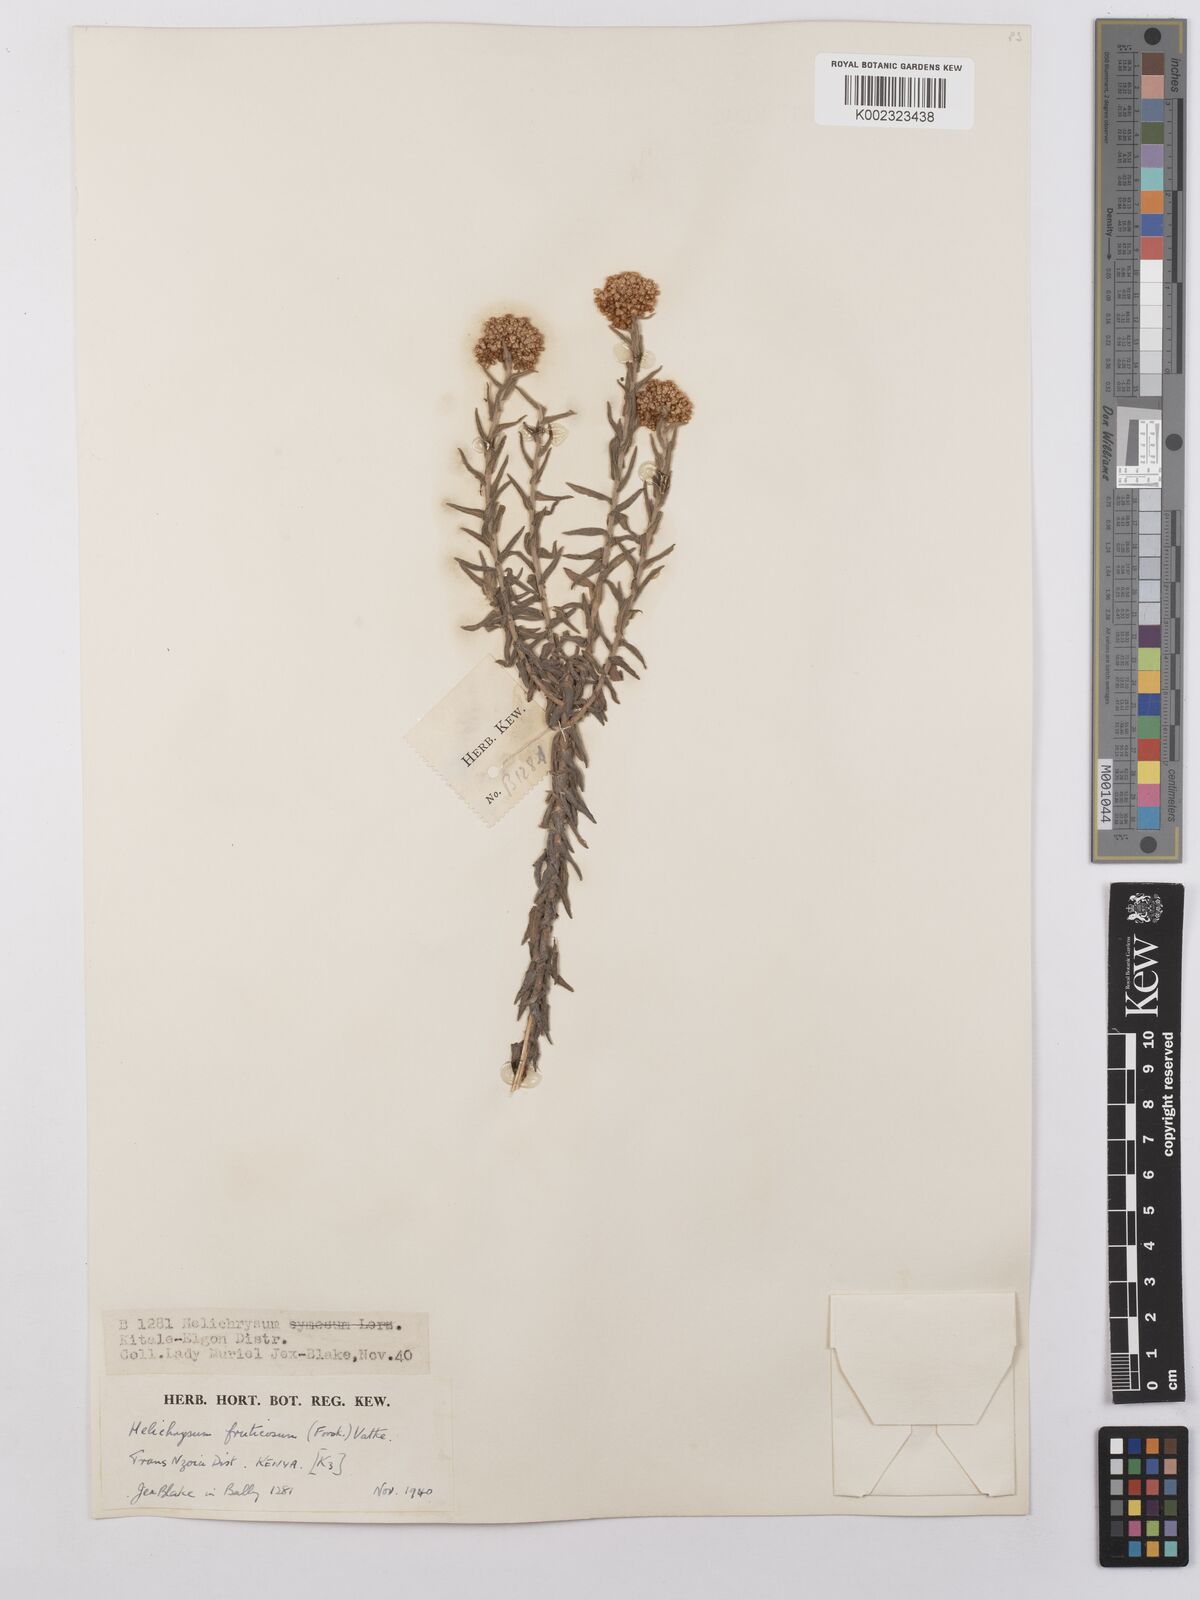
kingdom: Plantae
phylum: Tracheophyta
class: Magnoliopsida
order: Asterales
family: Asteraceae
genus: Helichrysum
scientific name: Helichrysum forskahlii
